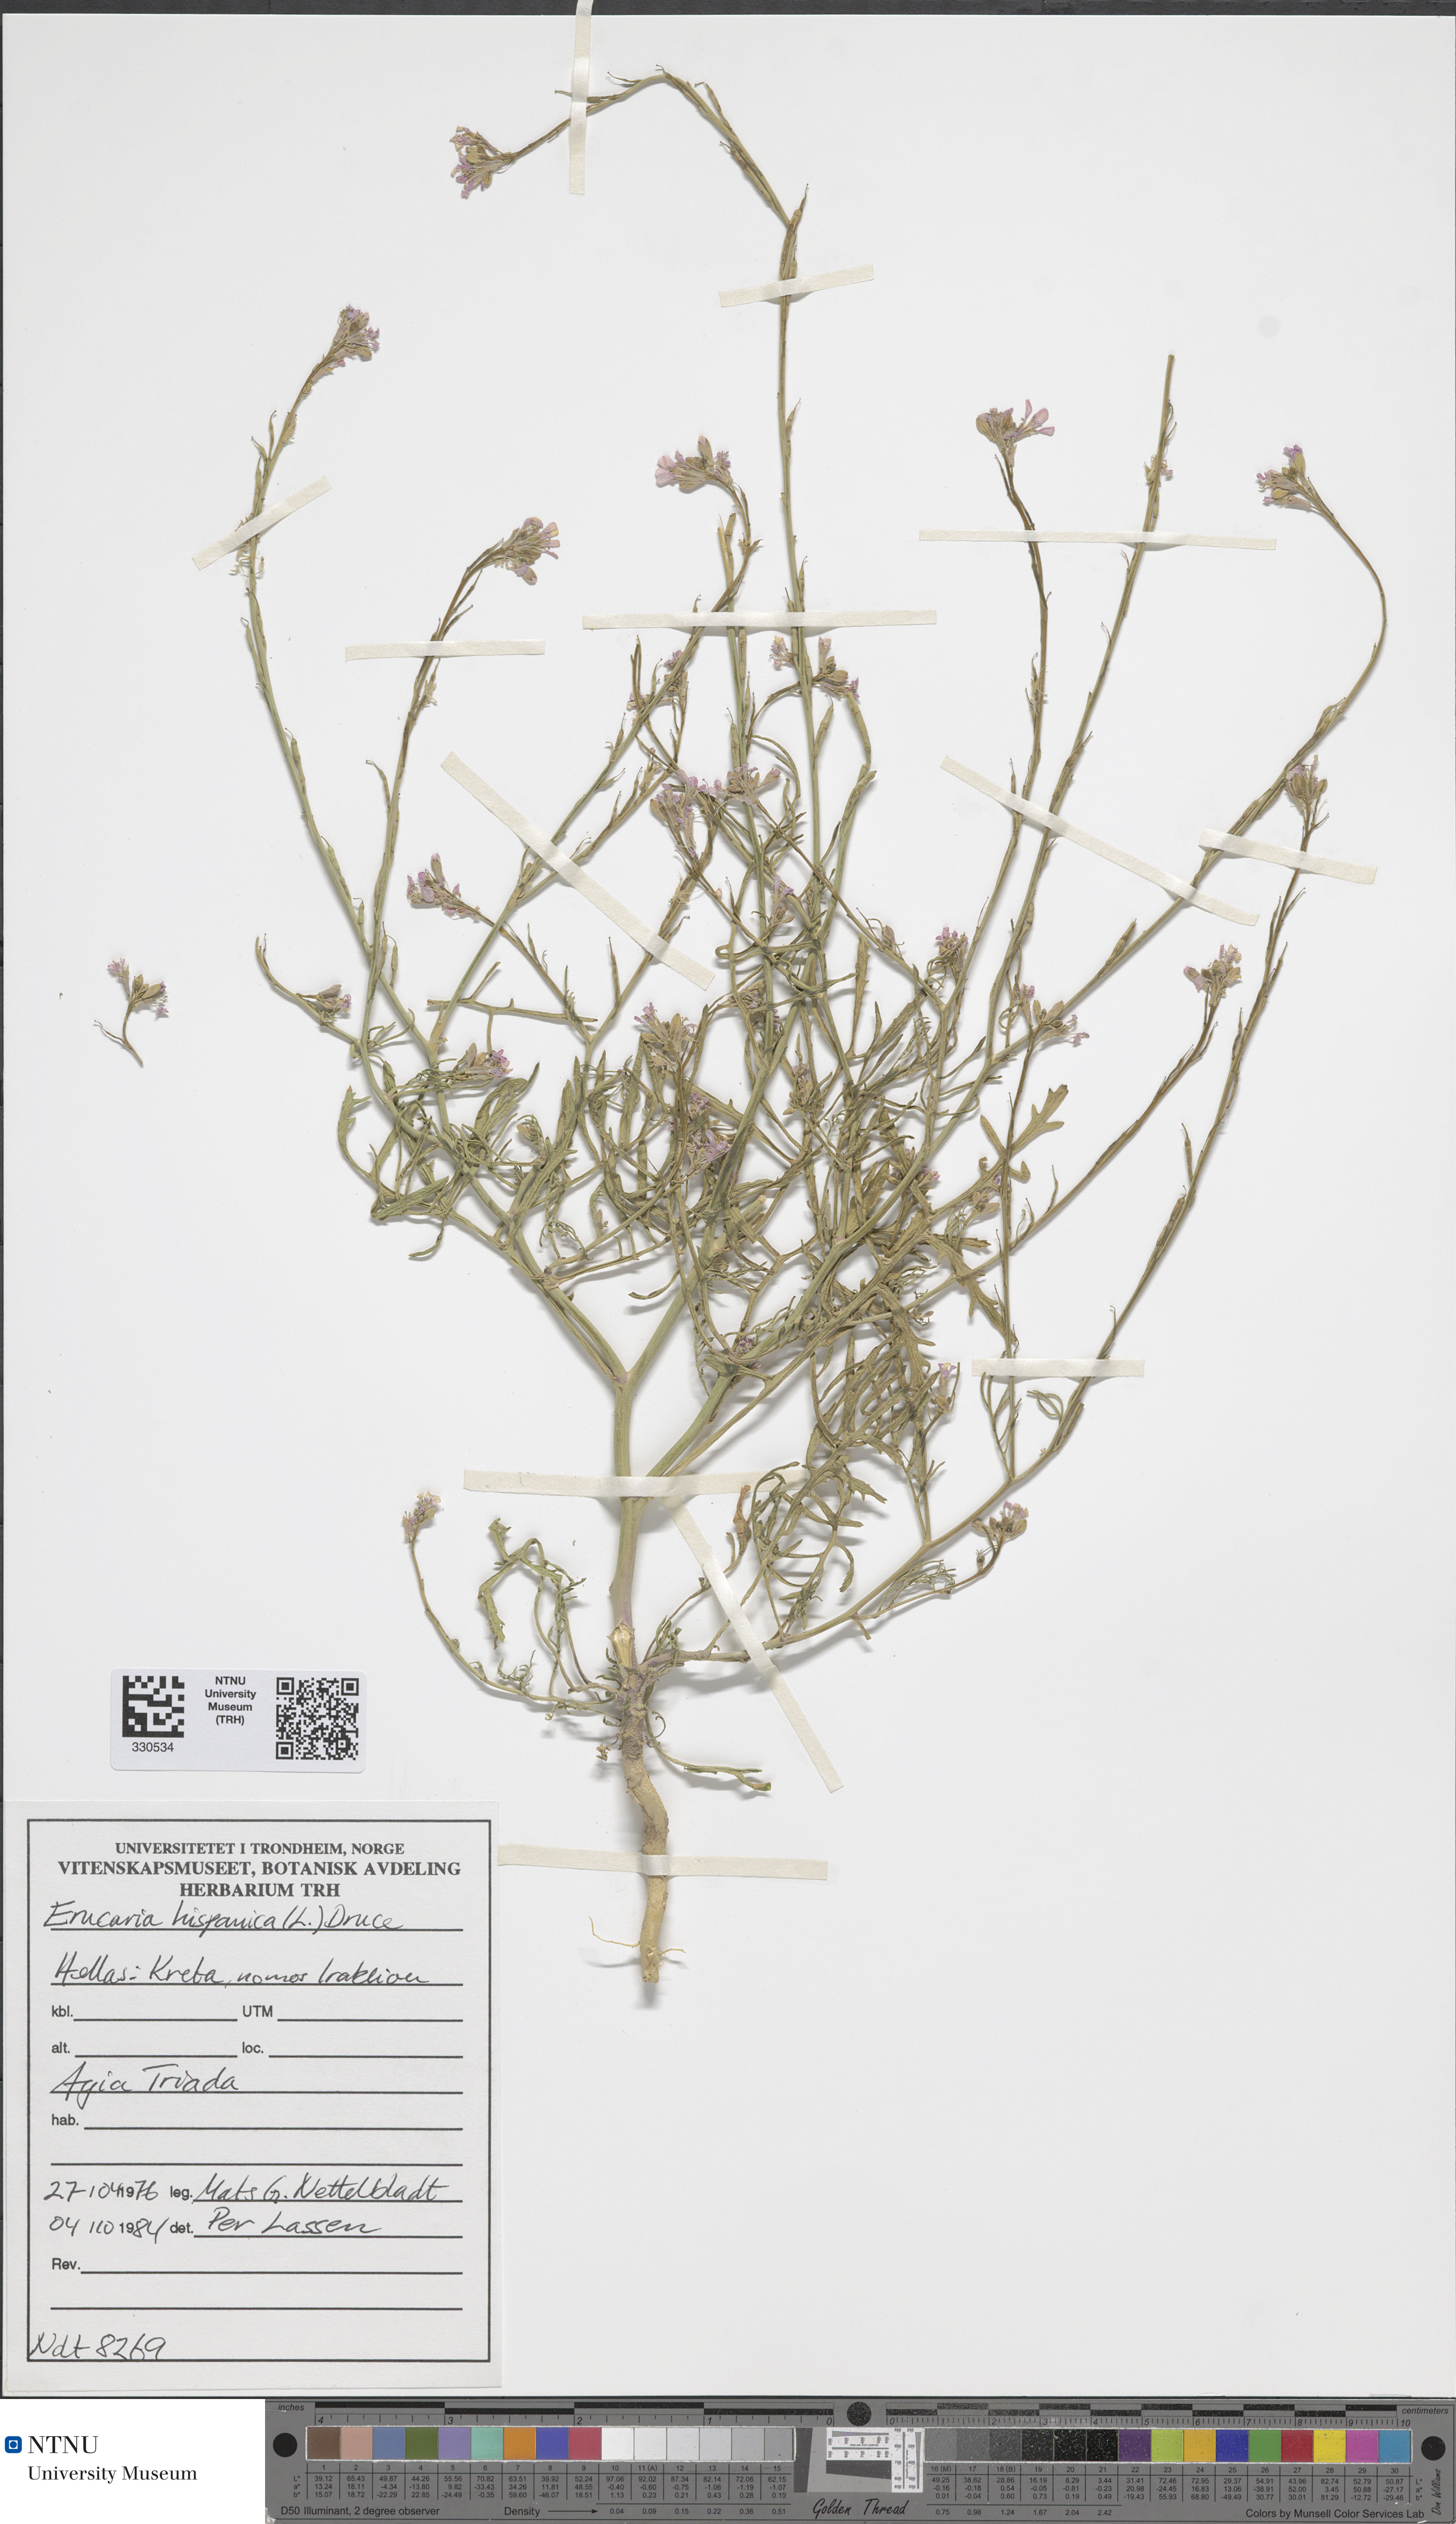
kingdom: Plantae
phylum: Tracheophyta
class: Magnoliopsida
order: Brassicales
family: Brassicaceae
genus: Erucaria
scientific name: Erucaria hispanica
